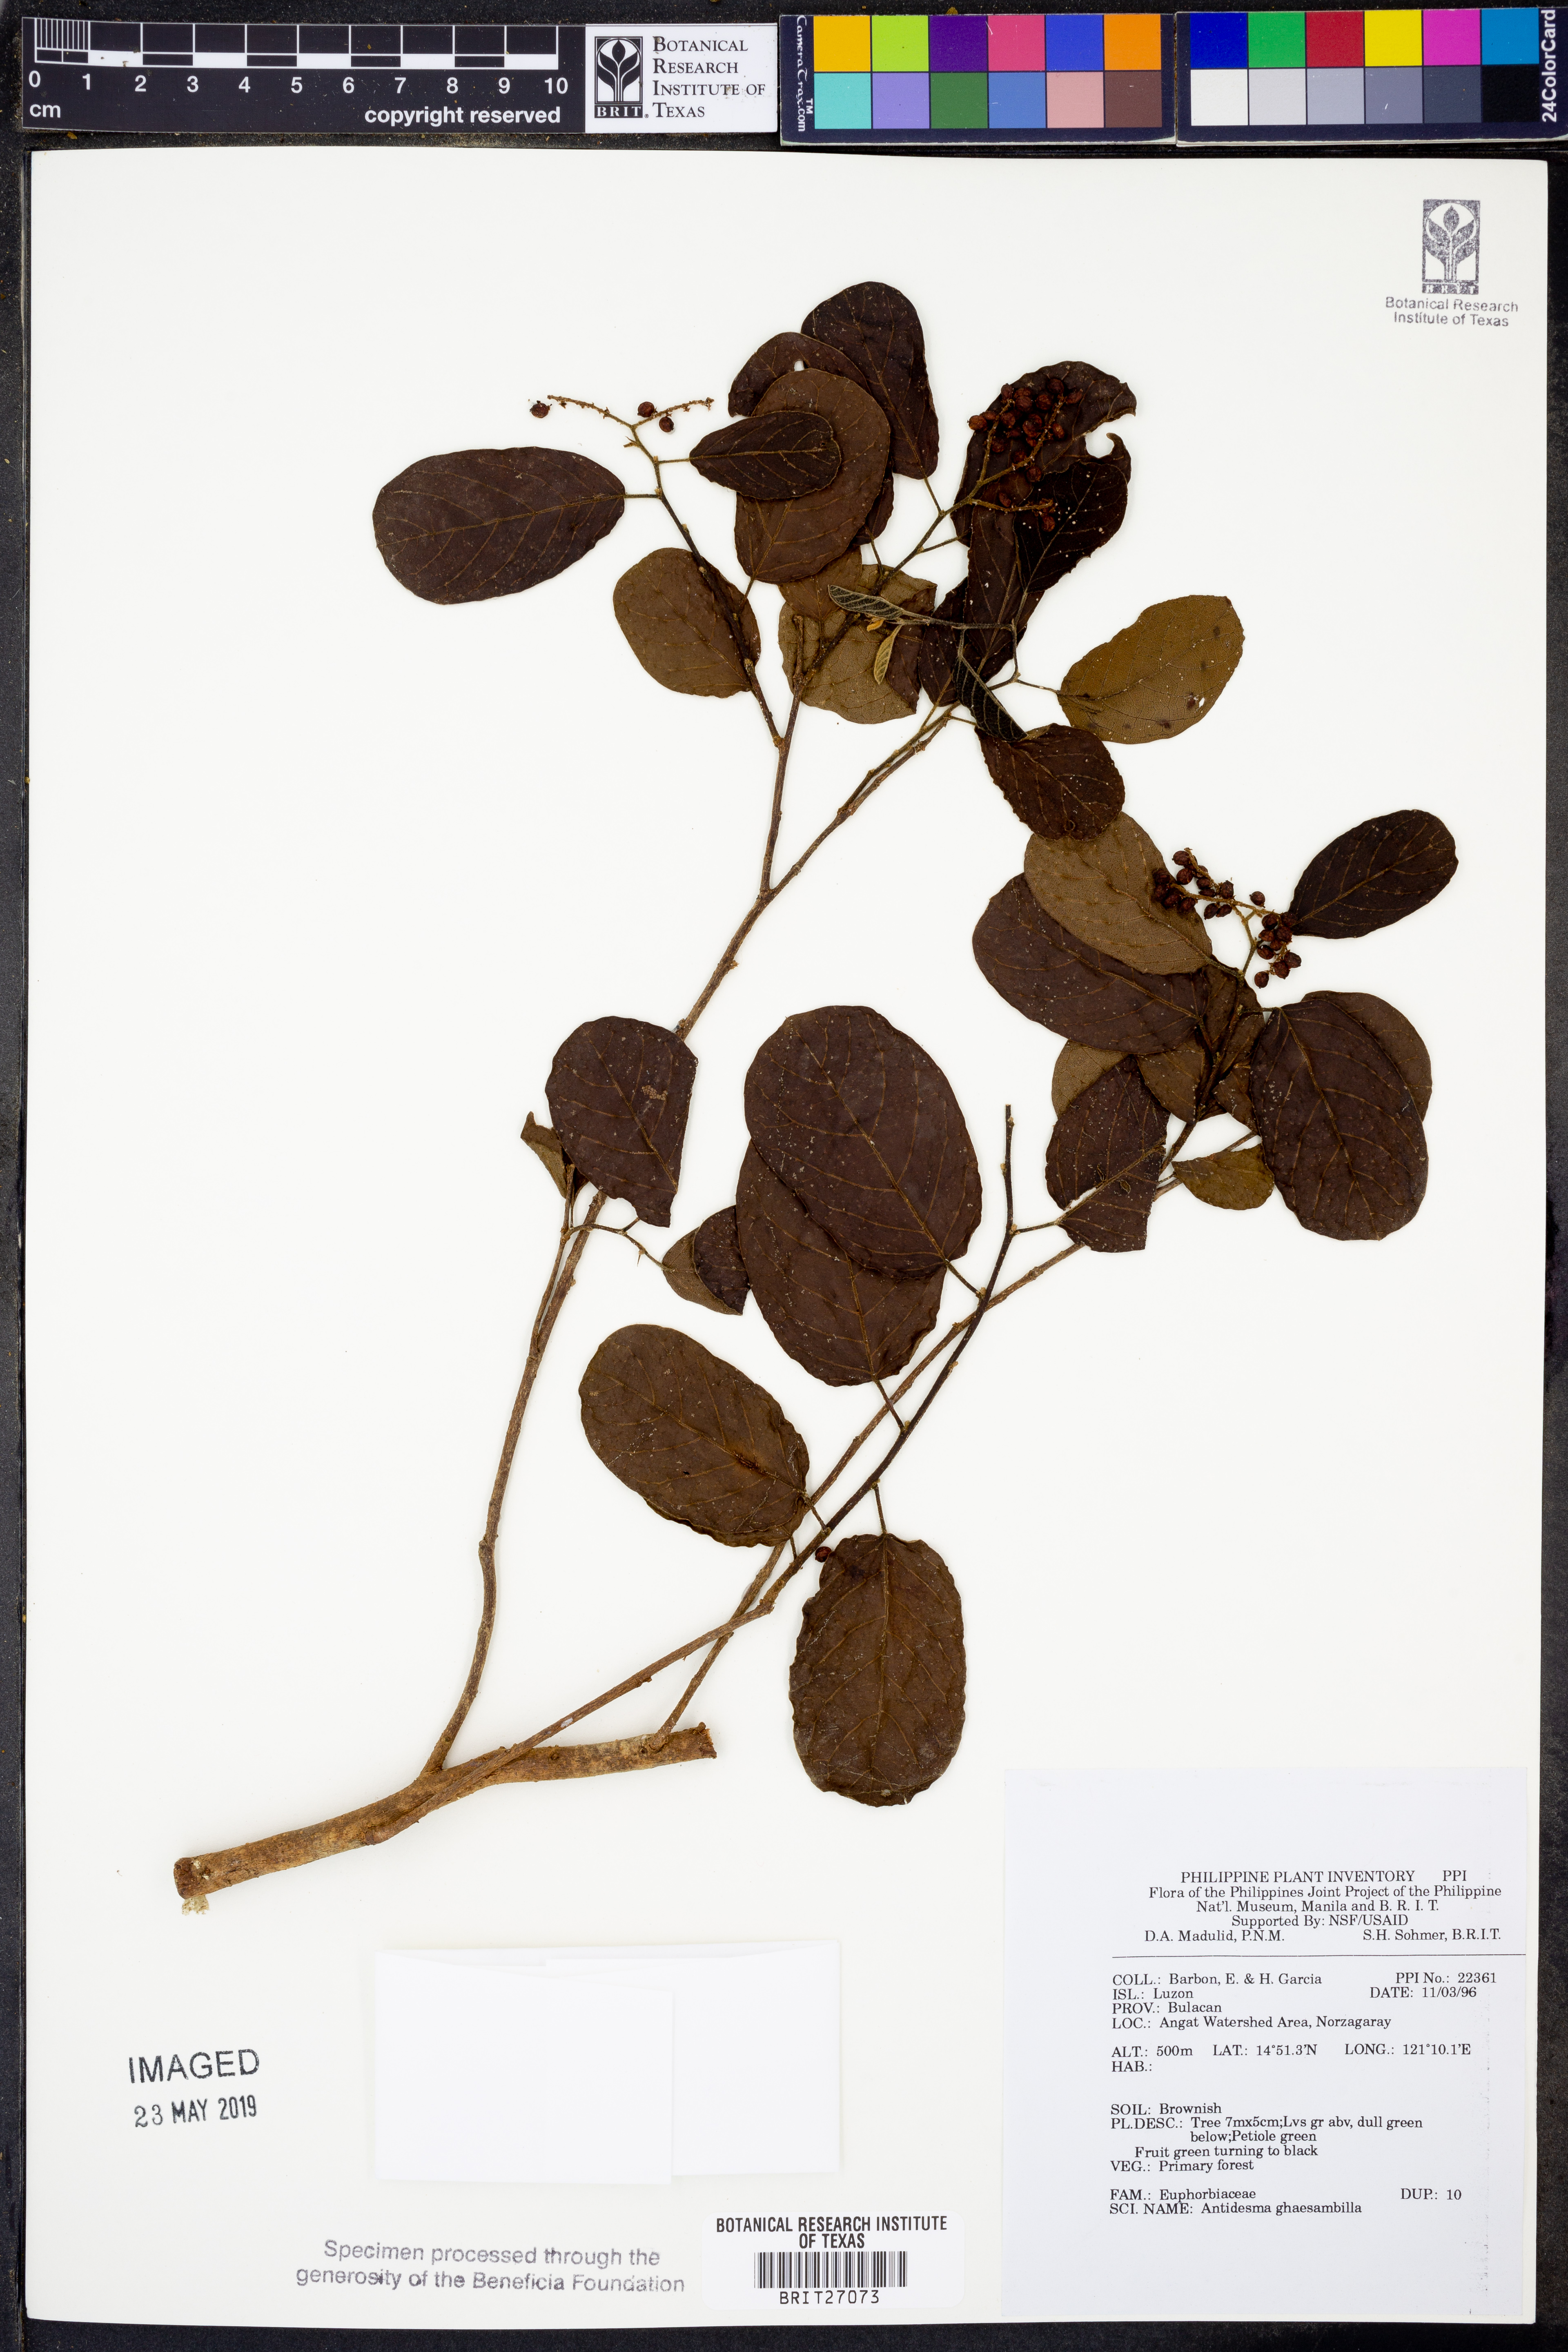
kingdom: Plantae
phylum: Tracheophyta
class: Magnoliopsida
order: Malpighiales
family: Phyllanthaceae
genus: Antidesma
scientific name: Antidesma ghaesembilla
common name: Black currant-tree
